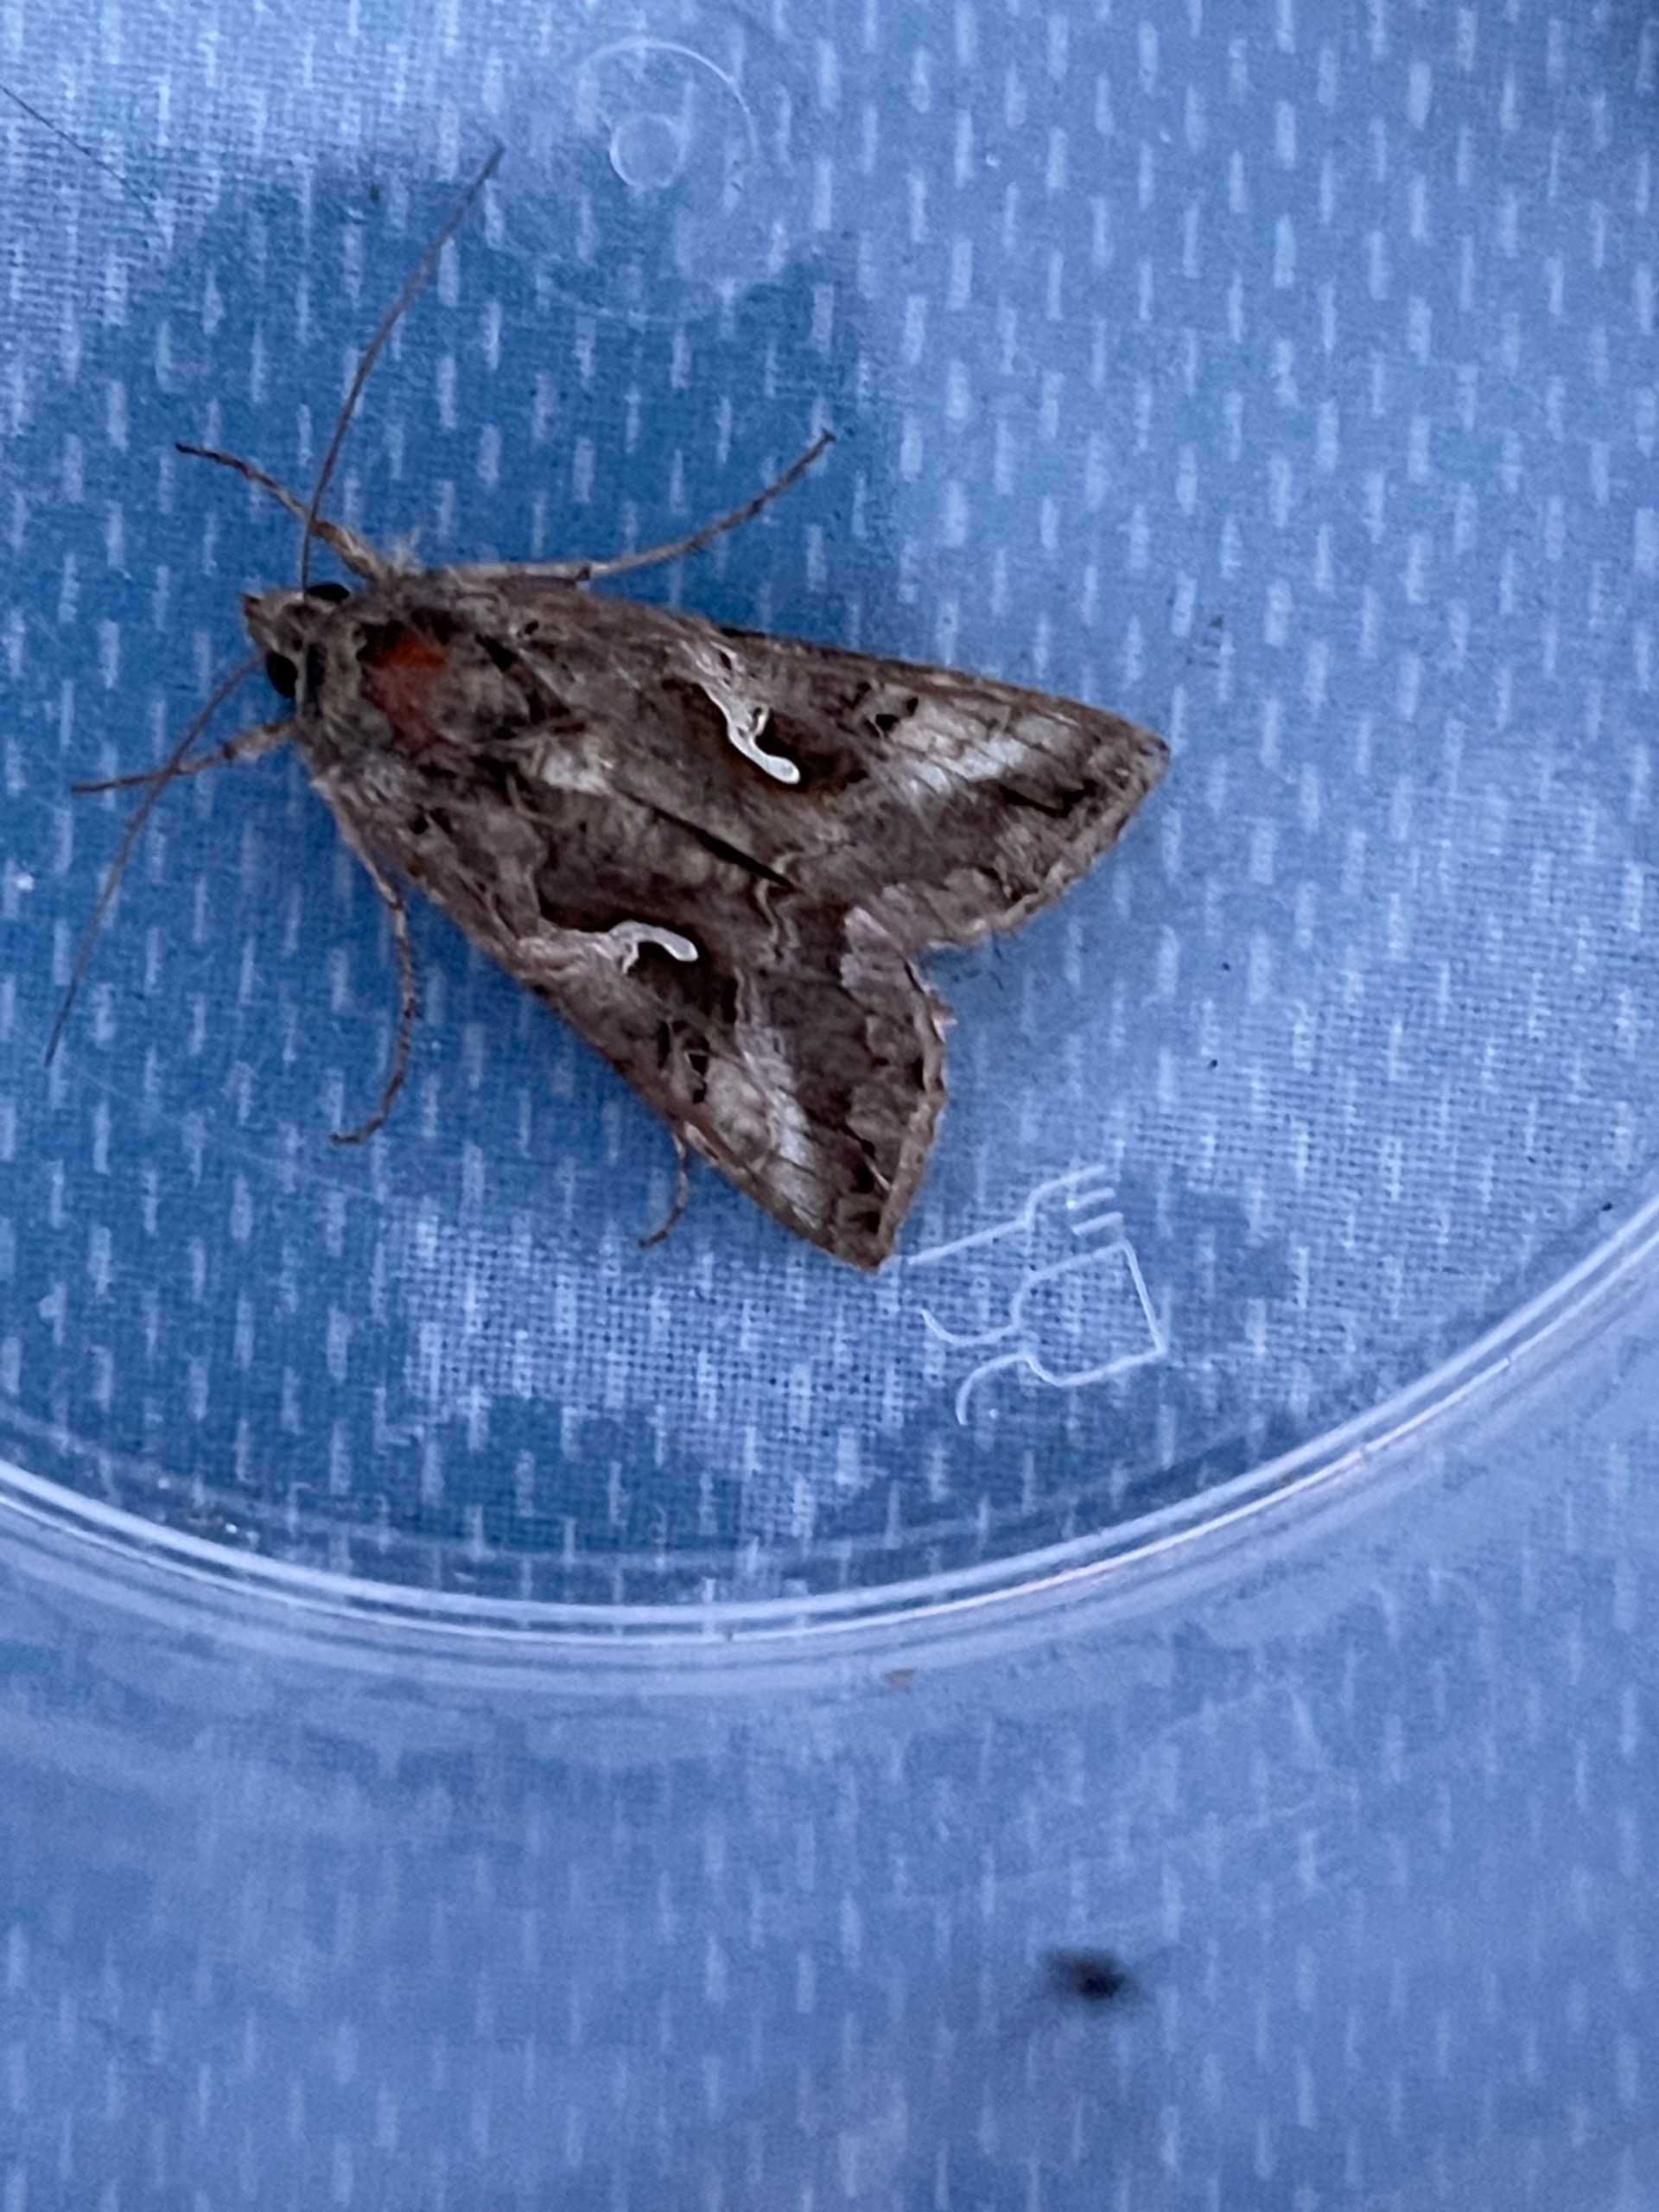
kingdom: Animalia
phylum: Arthropoda
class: Insecta
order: Lepidoptera
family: Noctuidae
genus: Autographa
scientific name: Autographa gamma
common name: Gammaugle
